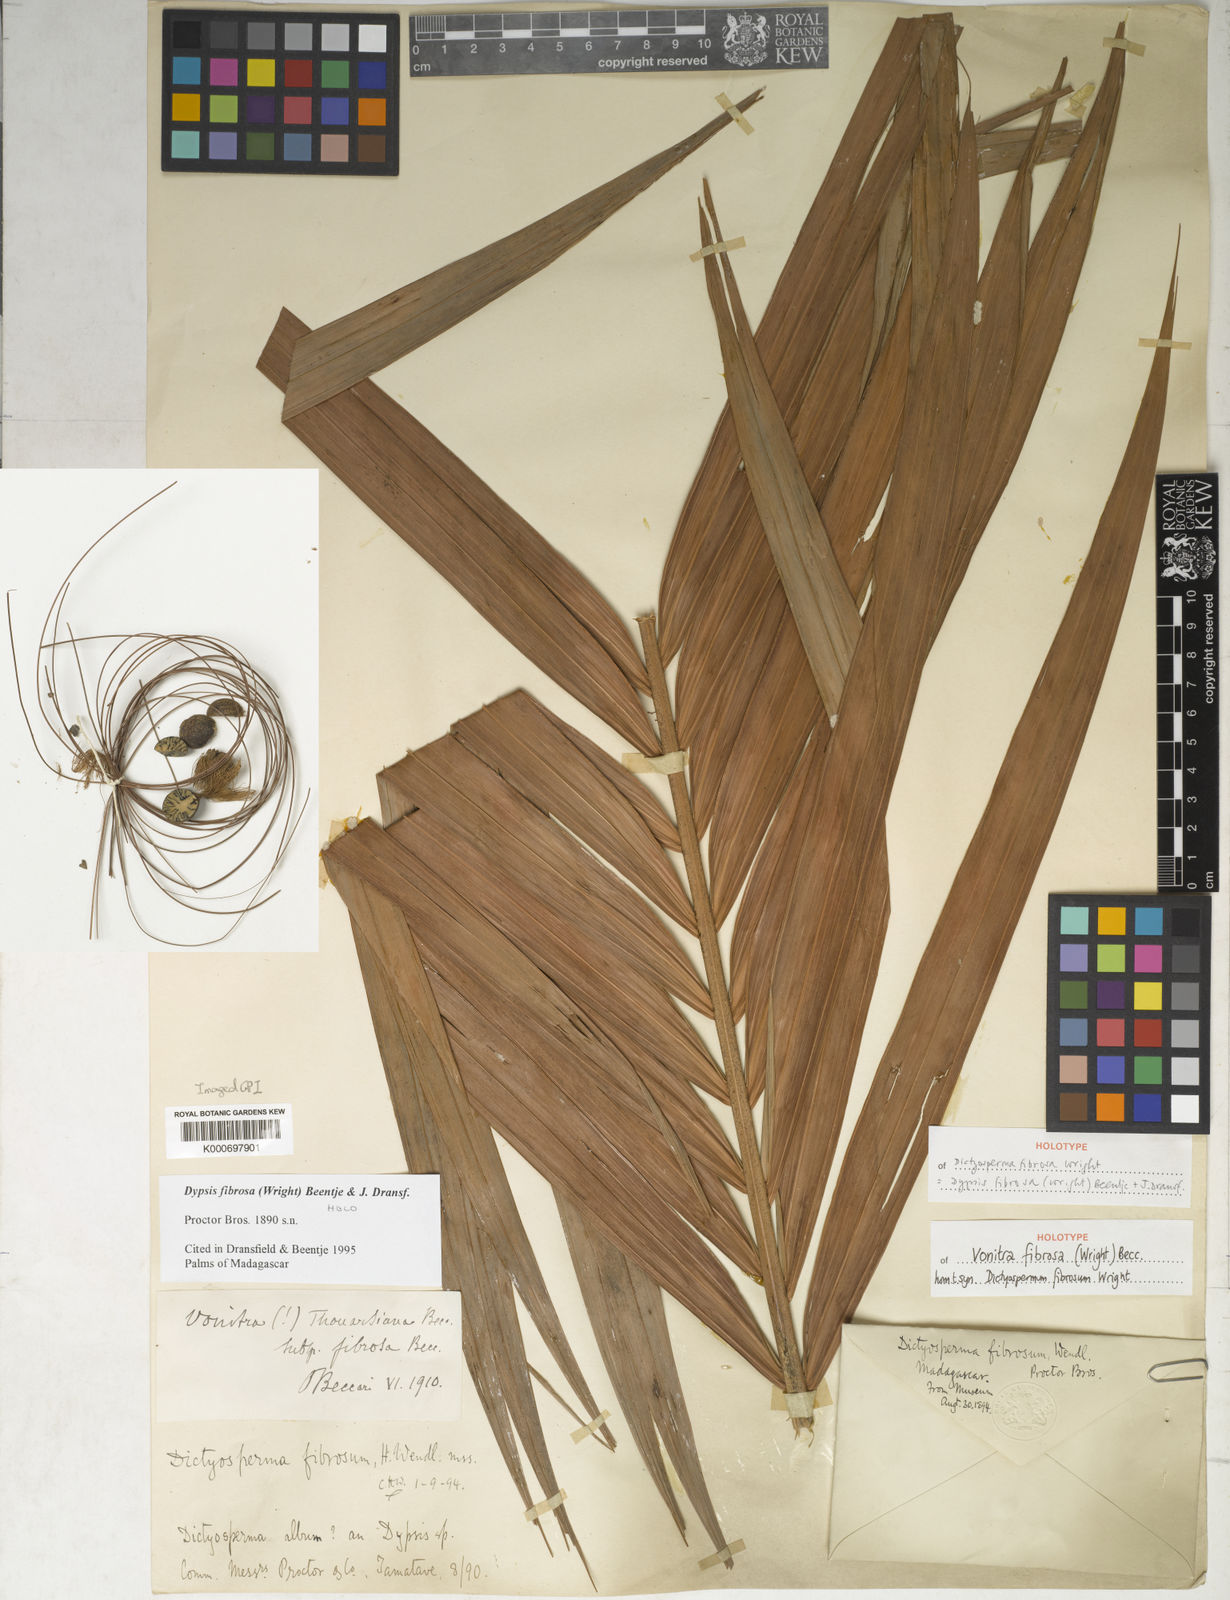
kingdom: Plantae
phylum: Tracheophyta
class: Liliopsida
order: Arecales
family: Arecaceae
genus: Dypsis
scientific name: Dypsis fibrosa
